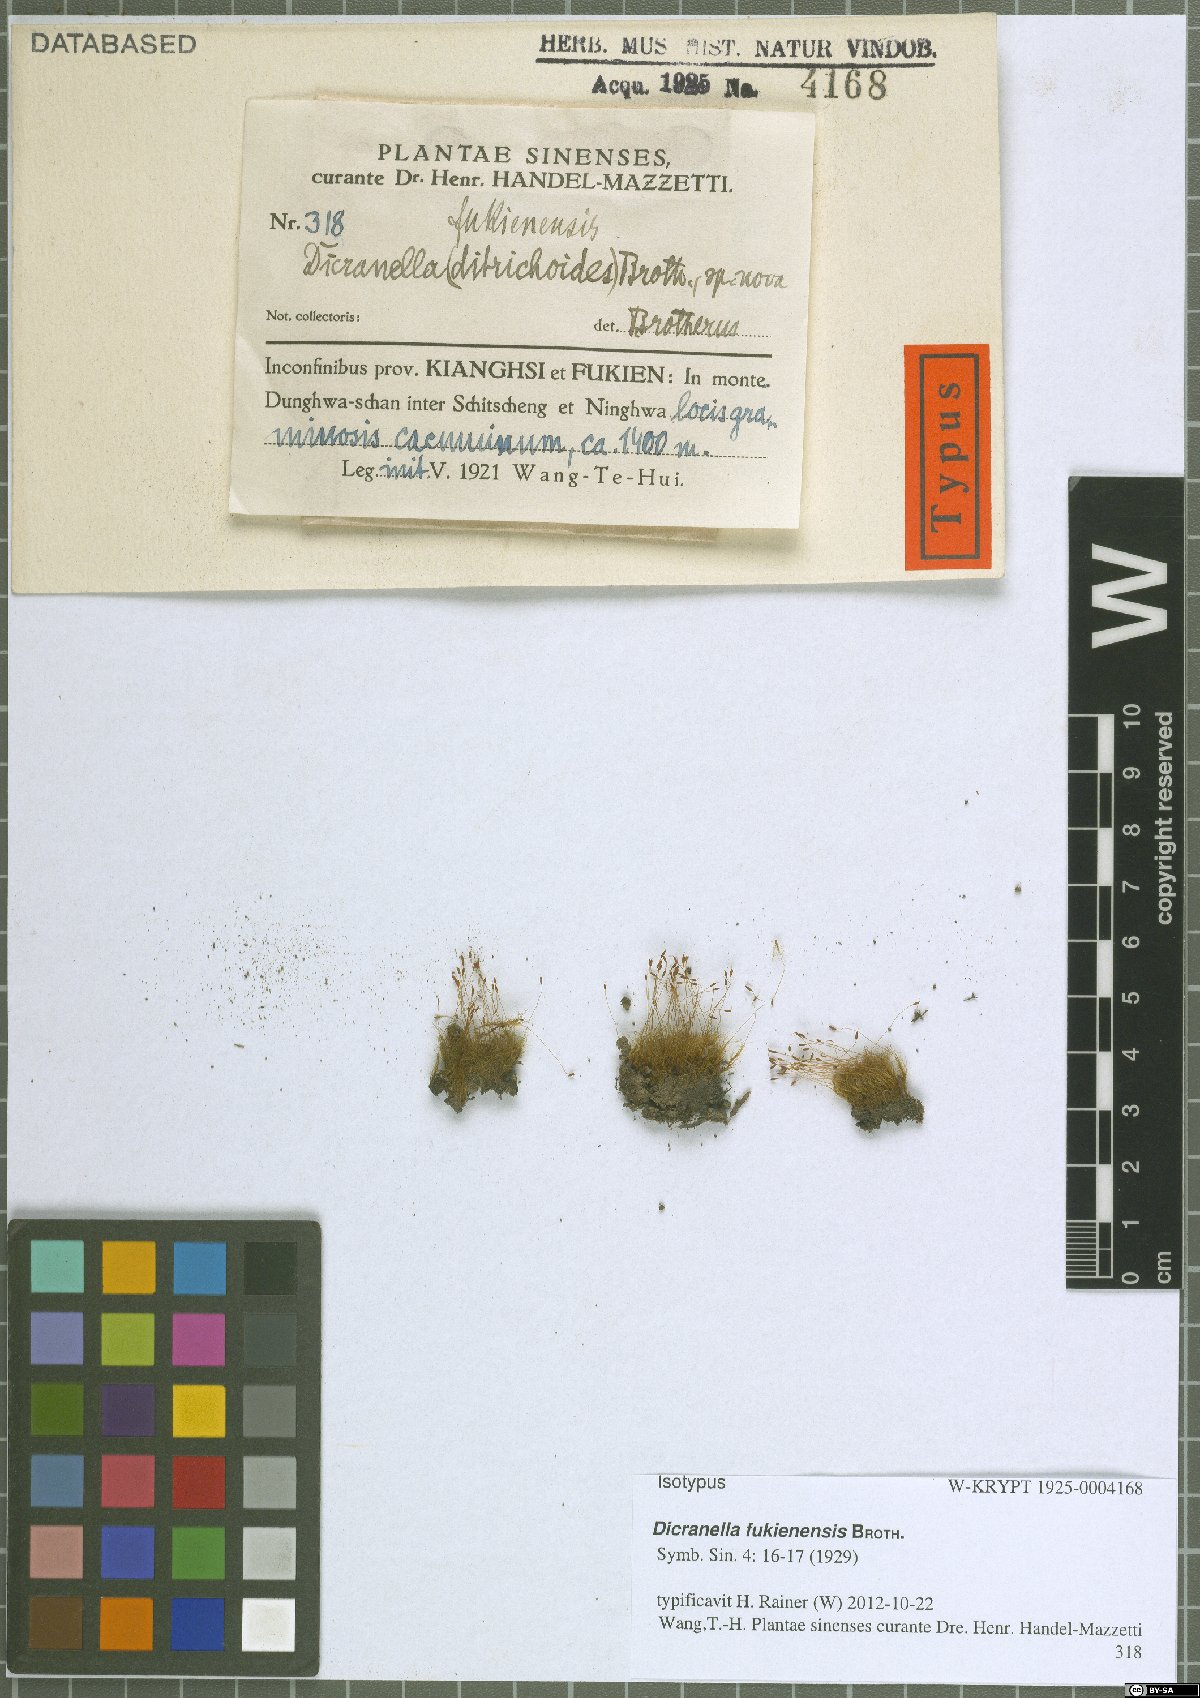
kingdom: Plantae
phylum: Bryophyta
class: Bryopsida
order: Dicranales
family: Dicranellaceae
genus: Dicranella
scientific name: Dicranella fukienensis
